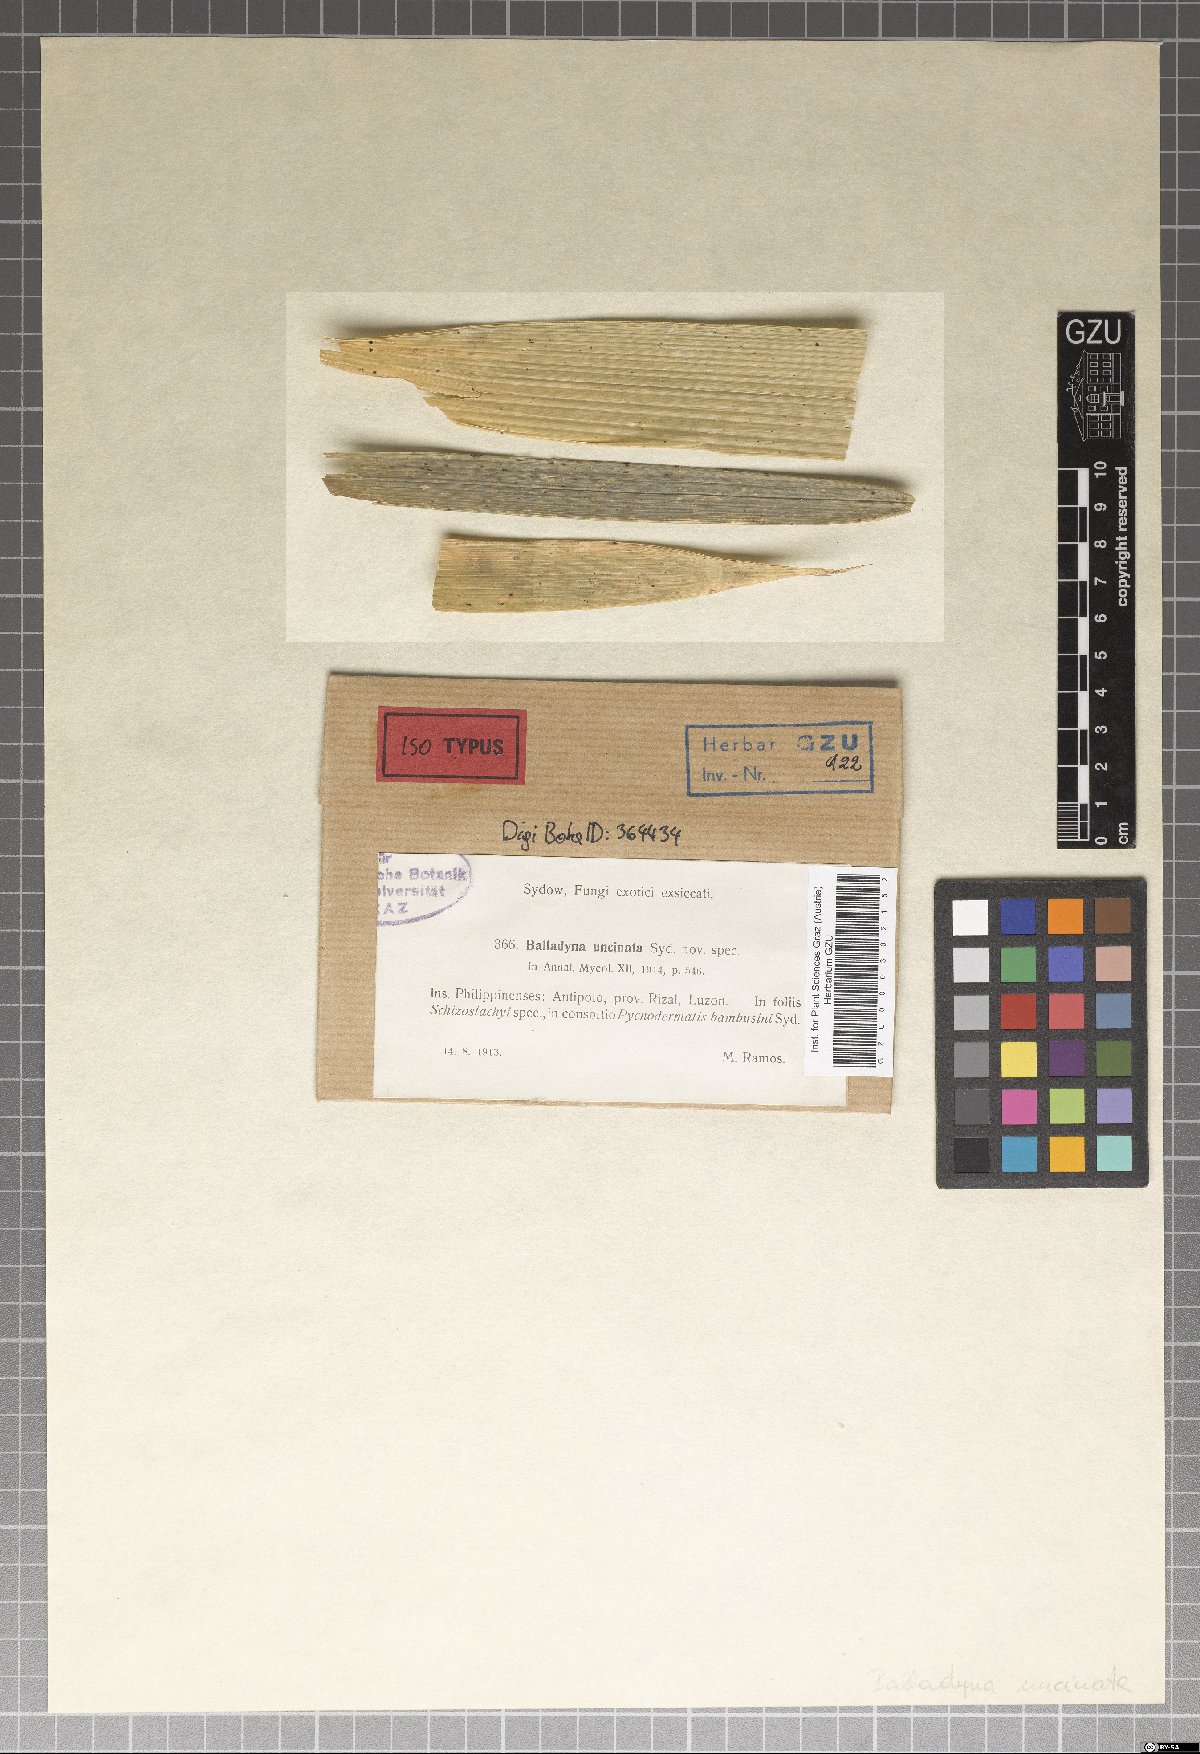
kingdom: Fungi
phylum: Ascomycota
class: Dothideomycetes
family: Dysrhynchaceae
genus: Dysrhynchis
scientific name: Dysrhynchis uncinata
